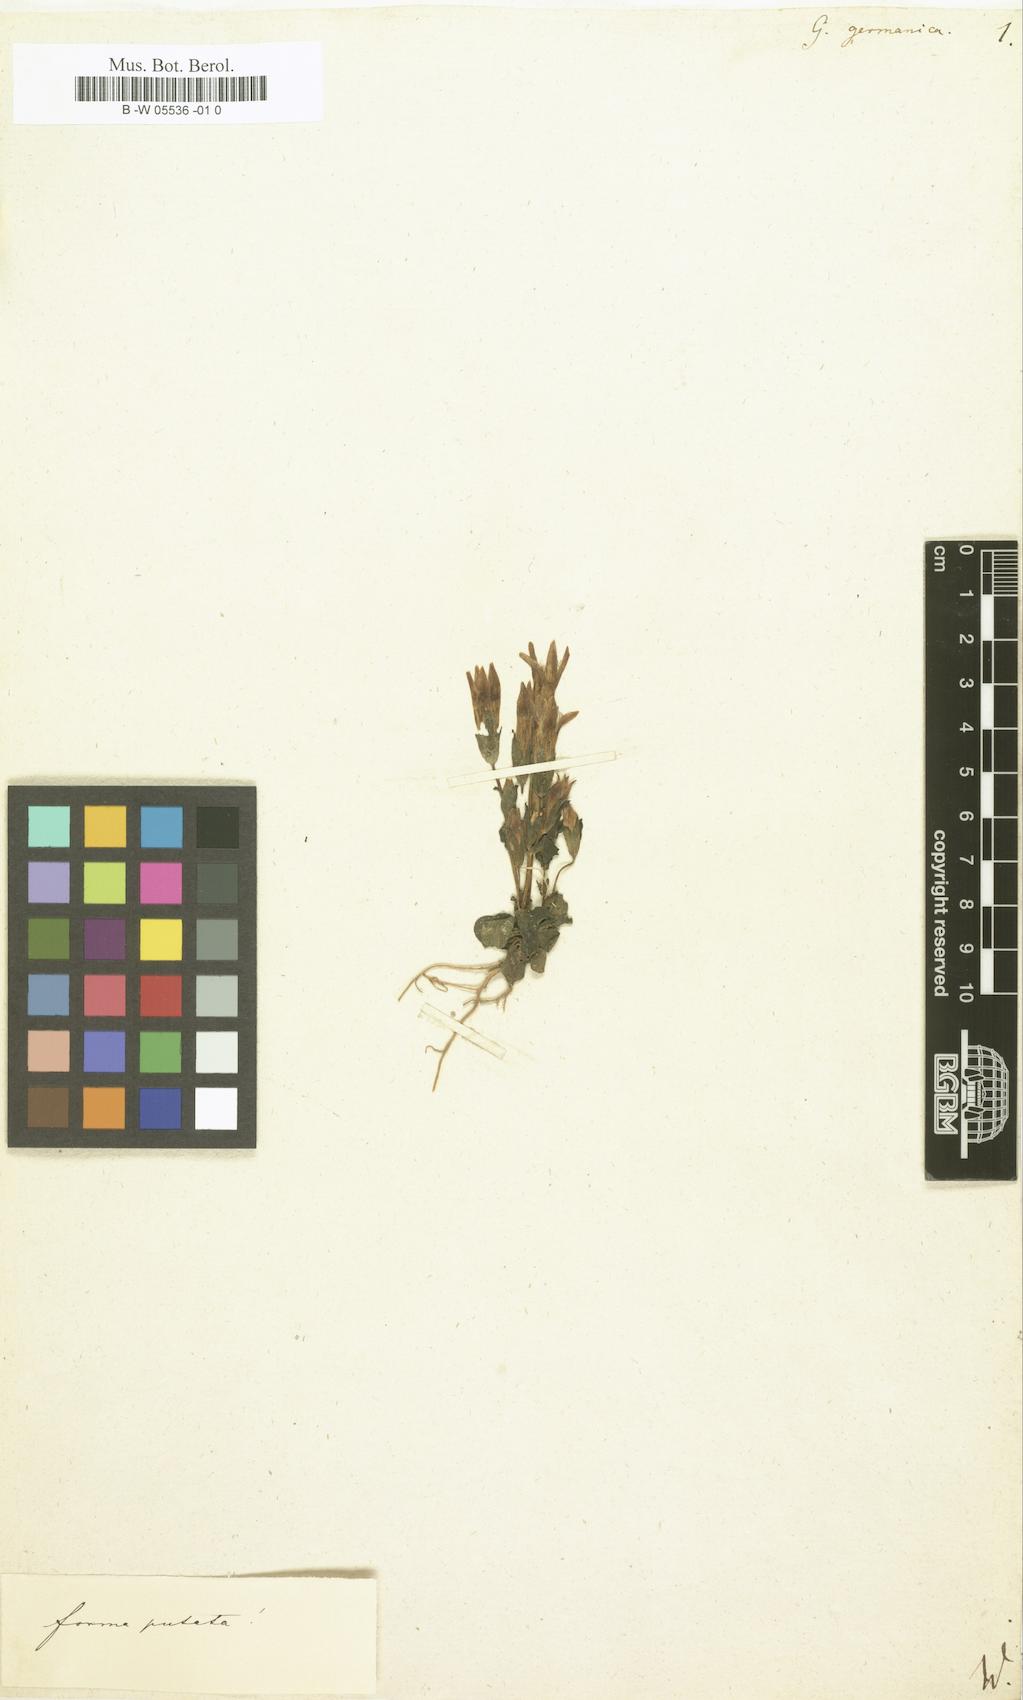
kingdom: Plantae
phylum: Tracheophyta
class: Magnoliopsida
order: Gentianales
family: Gentianaceae
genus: Gentianella
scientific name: Gentianella
